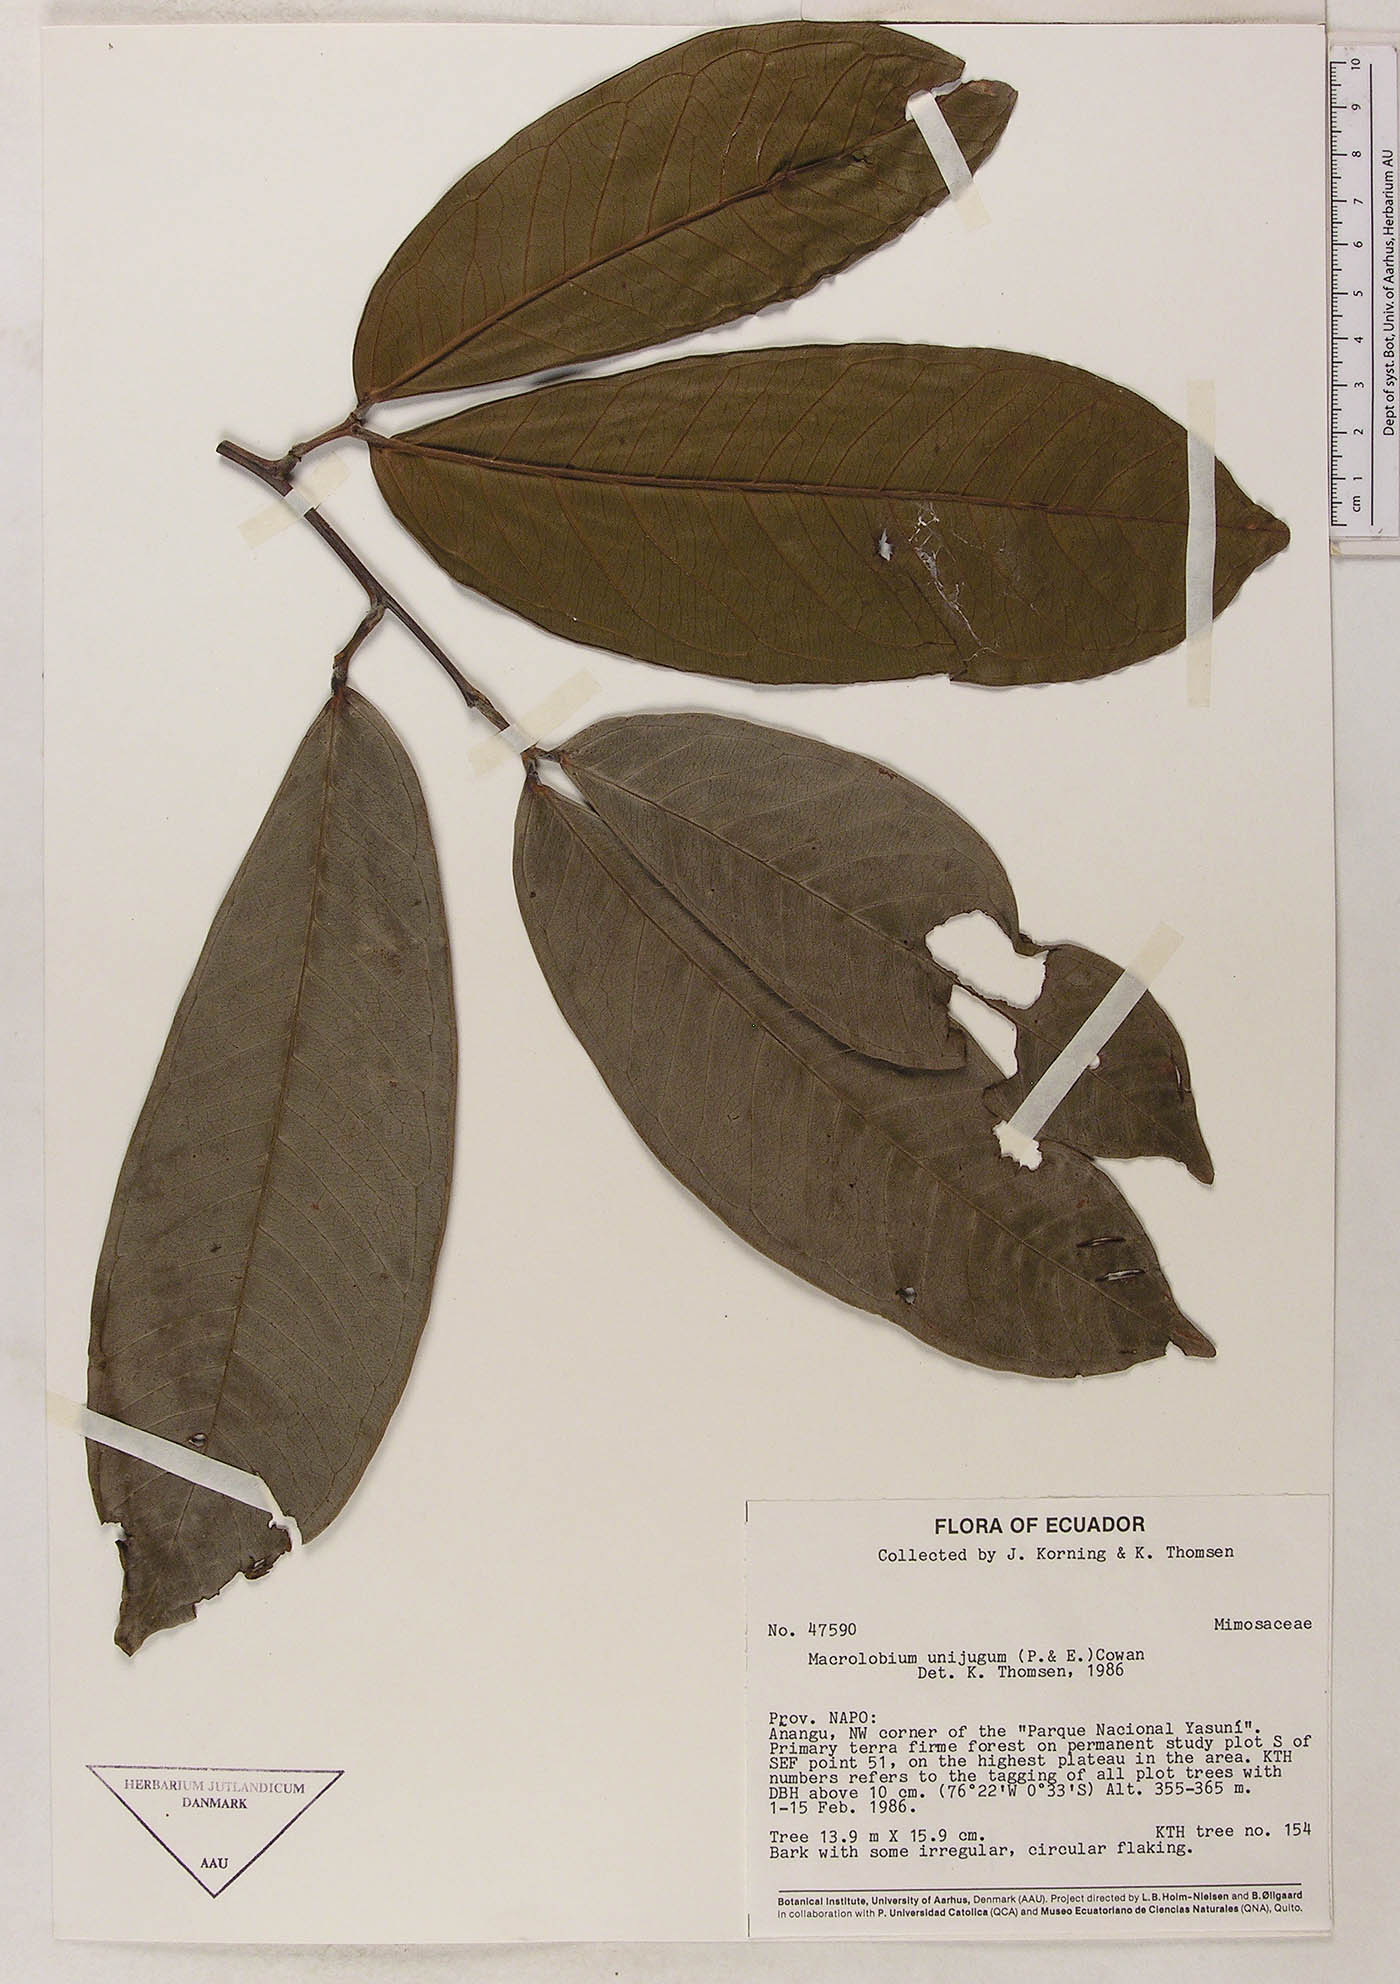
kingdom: Plantae
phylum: Tracheophyta
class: Magnoliopsida
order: Fabales
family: Fabaceae
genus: Macrolobium
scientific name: Macrolobium limbatum
